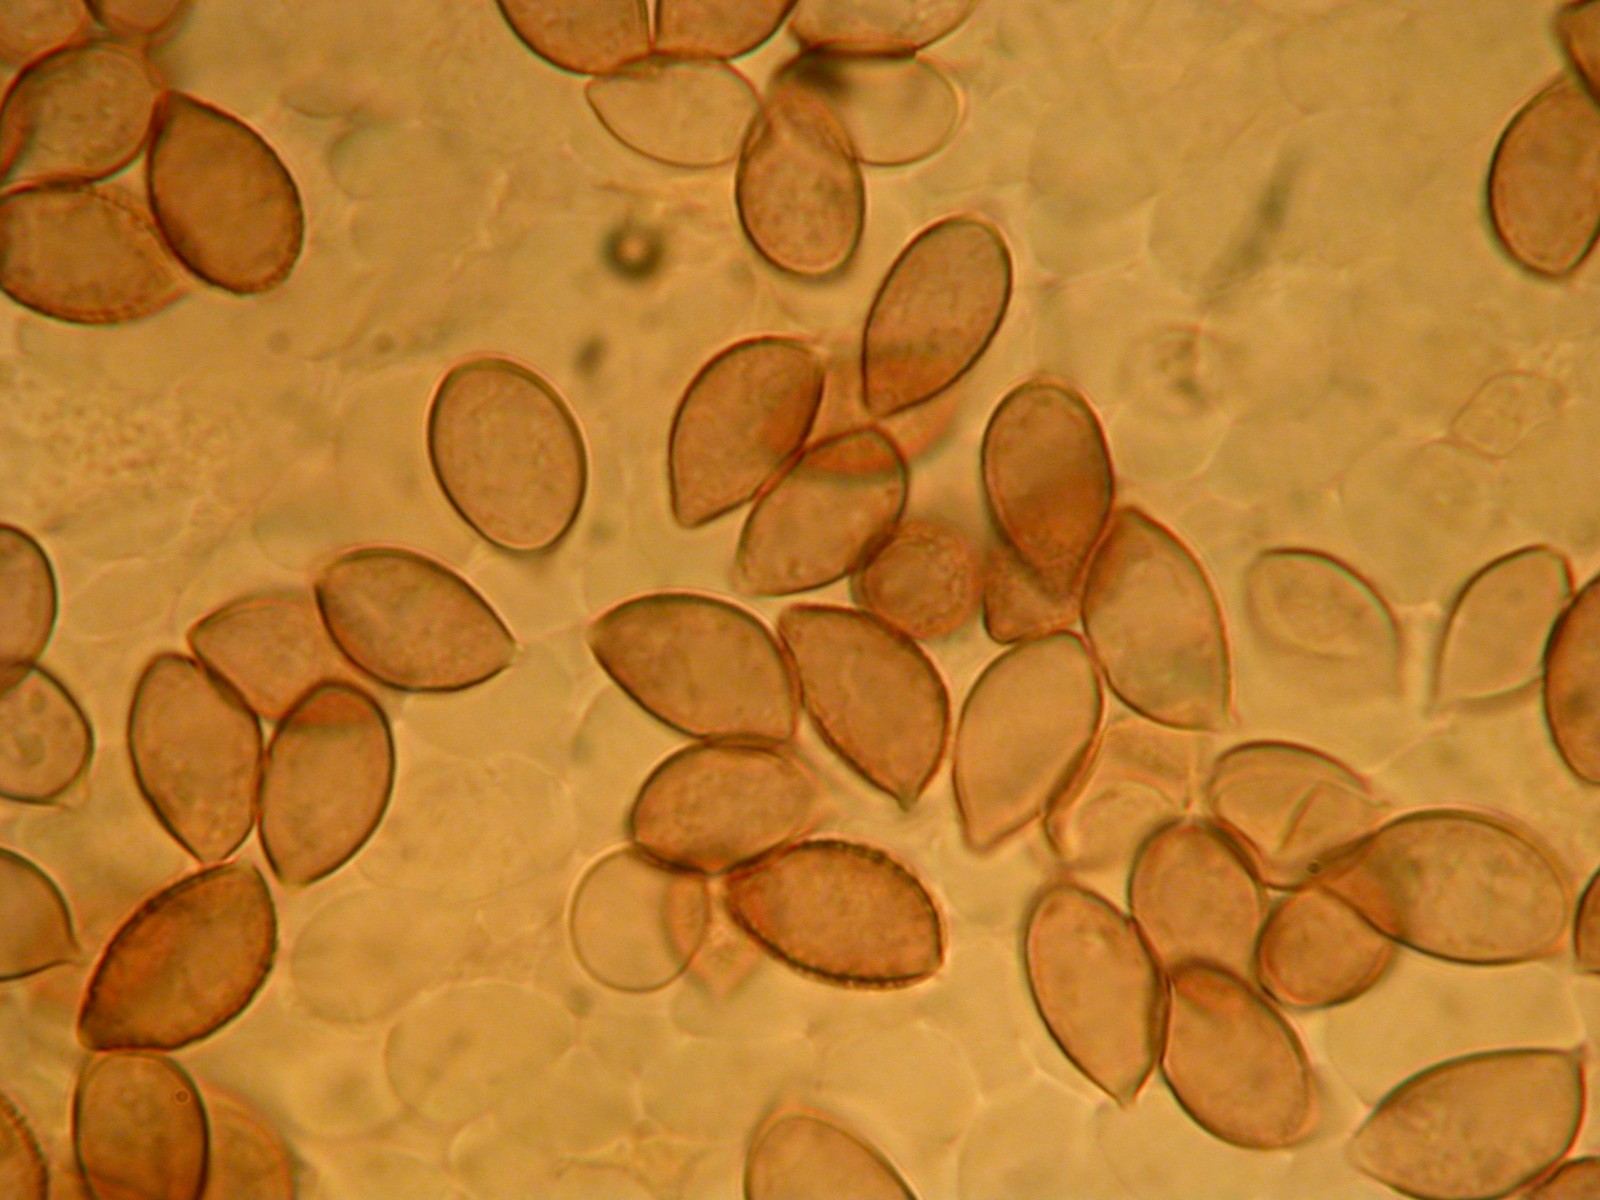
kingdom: Fungi
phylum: Basidiomycota
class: Agaricomycetes
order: Agaricales
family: Hymenogastraceae
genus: Hebeloma
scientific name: Hebeloma vaccinum
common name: ko-tåreblad
